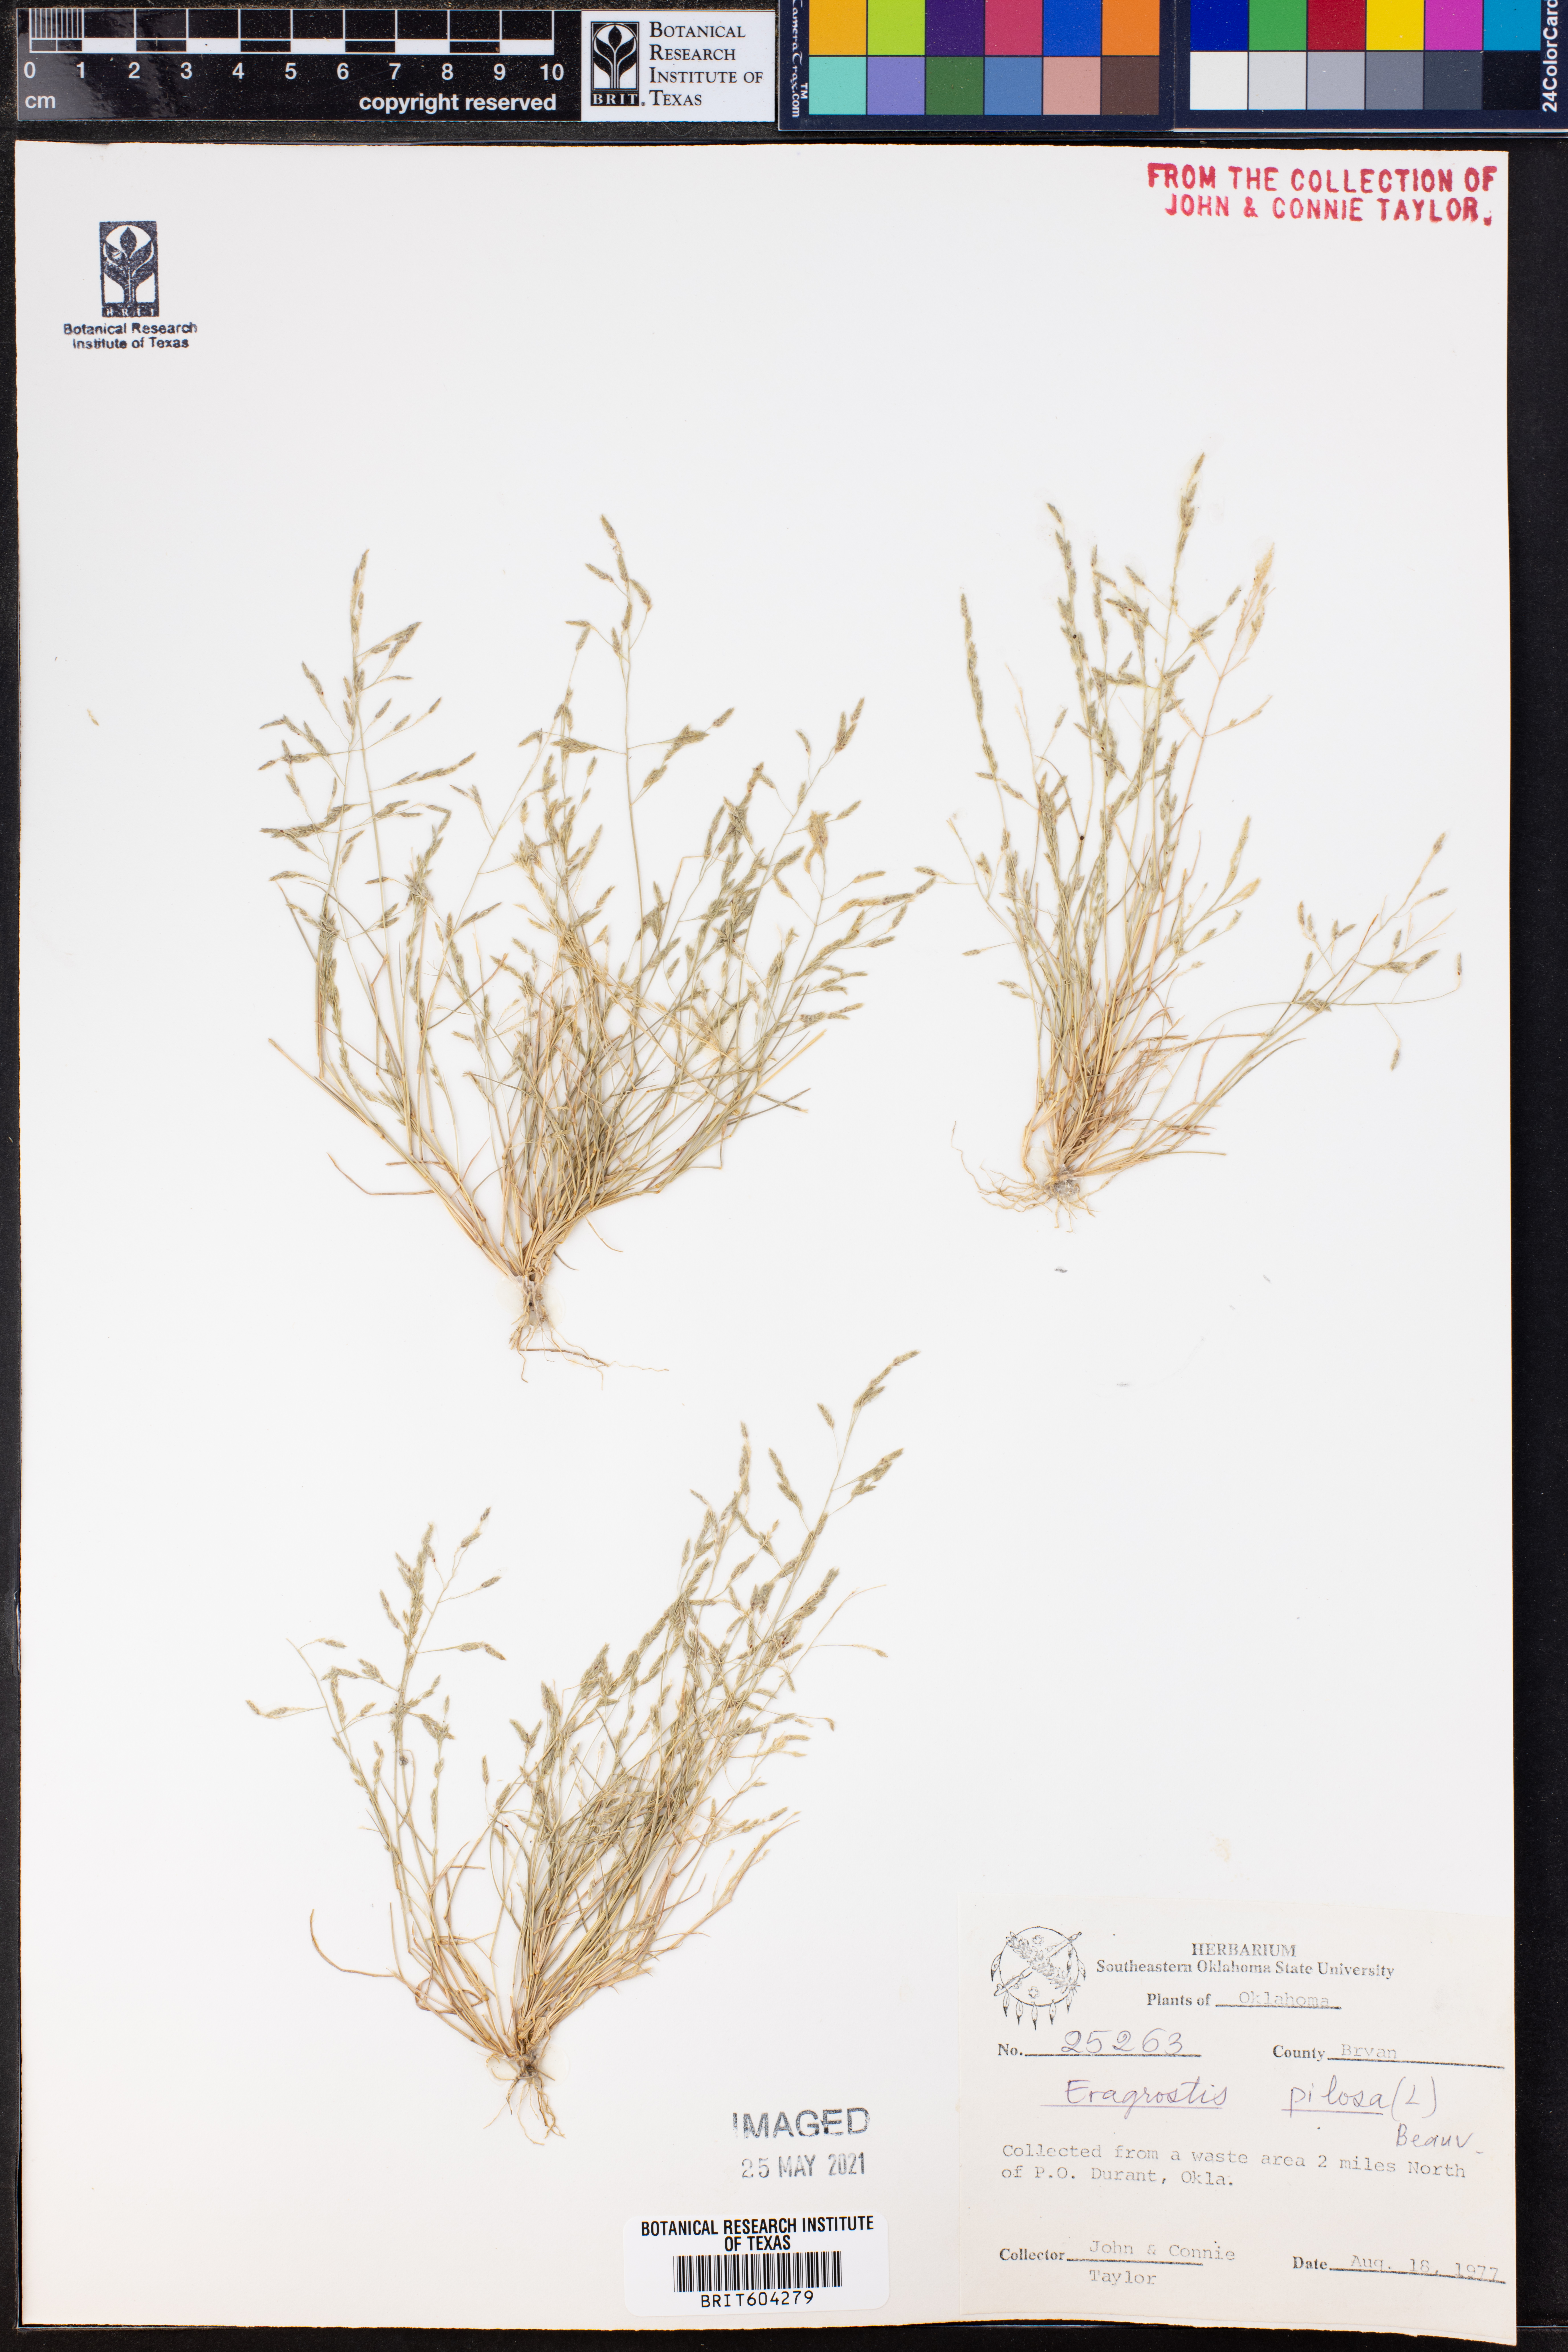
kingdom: Plantae
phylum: Tracheophyta
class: Liliopsida
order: Poales
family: Poaceae
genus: Eragrostis
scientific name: Eragrostis pilosa
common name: Indian lovegrass
